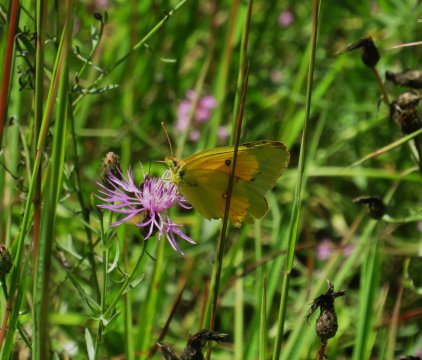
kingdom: Animalia
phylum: Arthropoda
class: Insecta
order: Lepidoptera
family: Pieridae
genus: Colias
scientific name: Colias eurytheme
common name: Orange Sulphur
